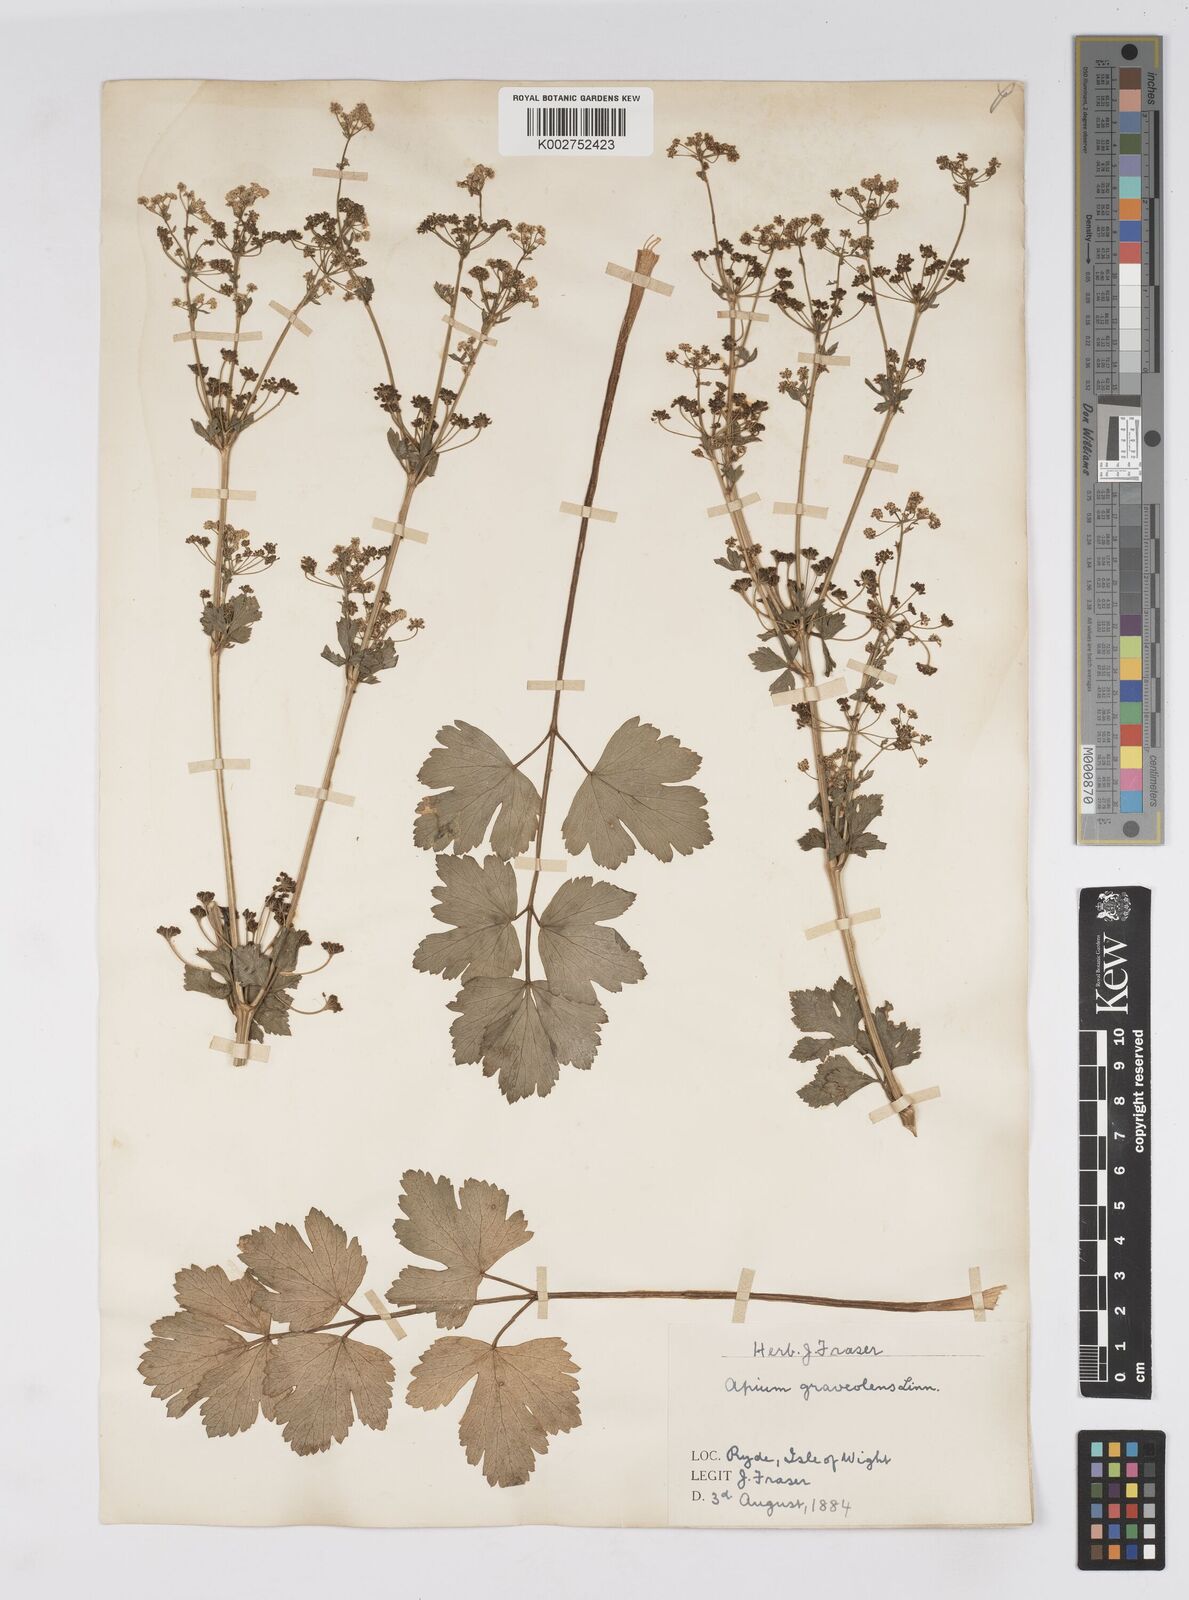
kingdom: Plantae
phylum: Tracheophyta
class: Magnoliopsida
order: Apiales
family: Apiaceae
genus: Apium
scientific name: Apium graveolens
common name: Wild celery
